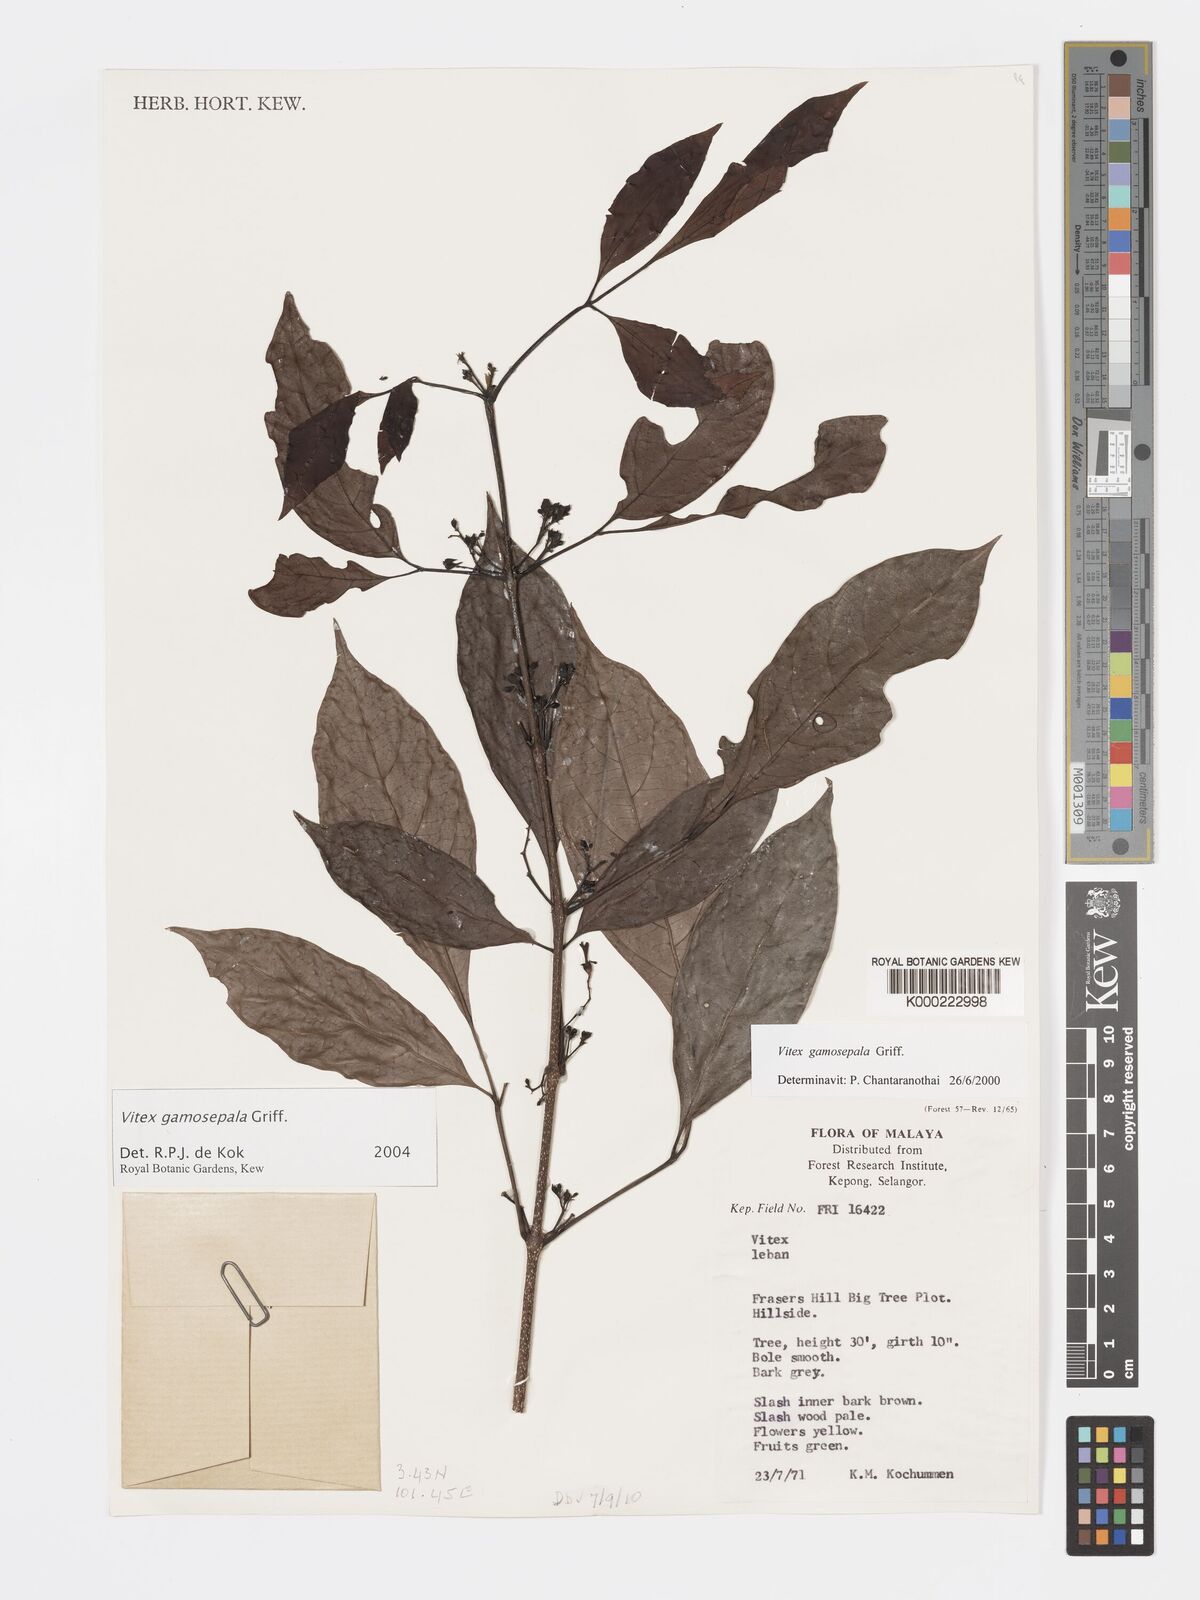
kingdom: Plantae
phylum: Tracheophyta
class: Magnoliopsida
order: Lamiales
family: Lamiaceae
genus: Vitex
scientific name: Vitex gamosepala
